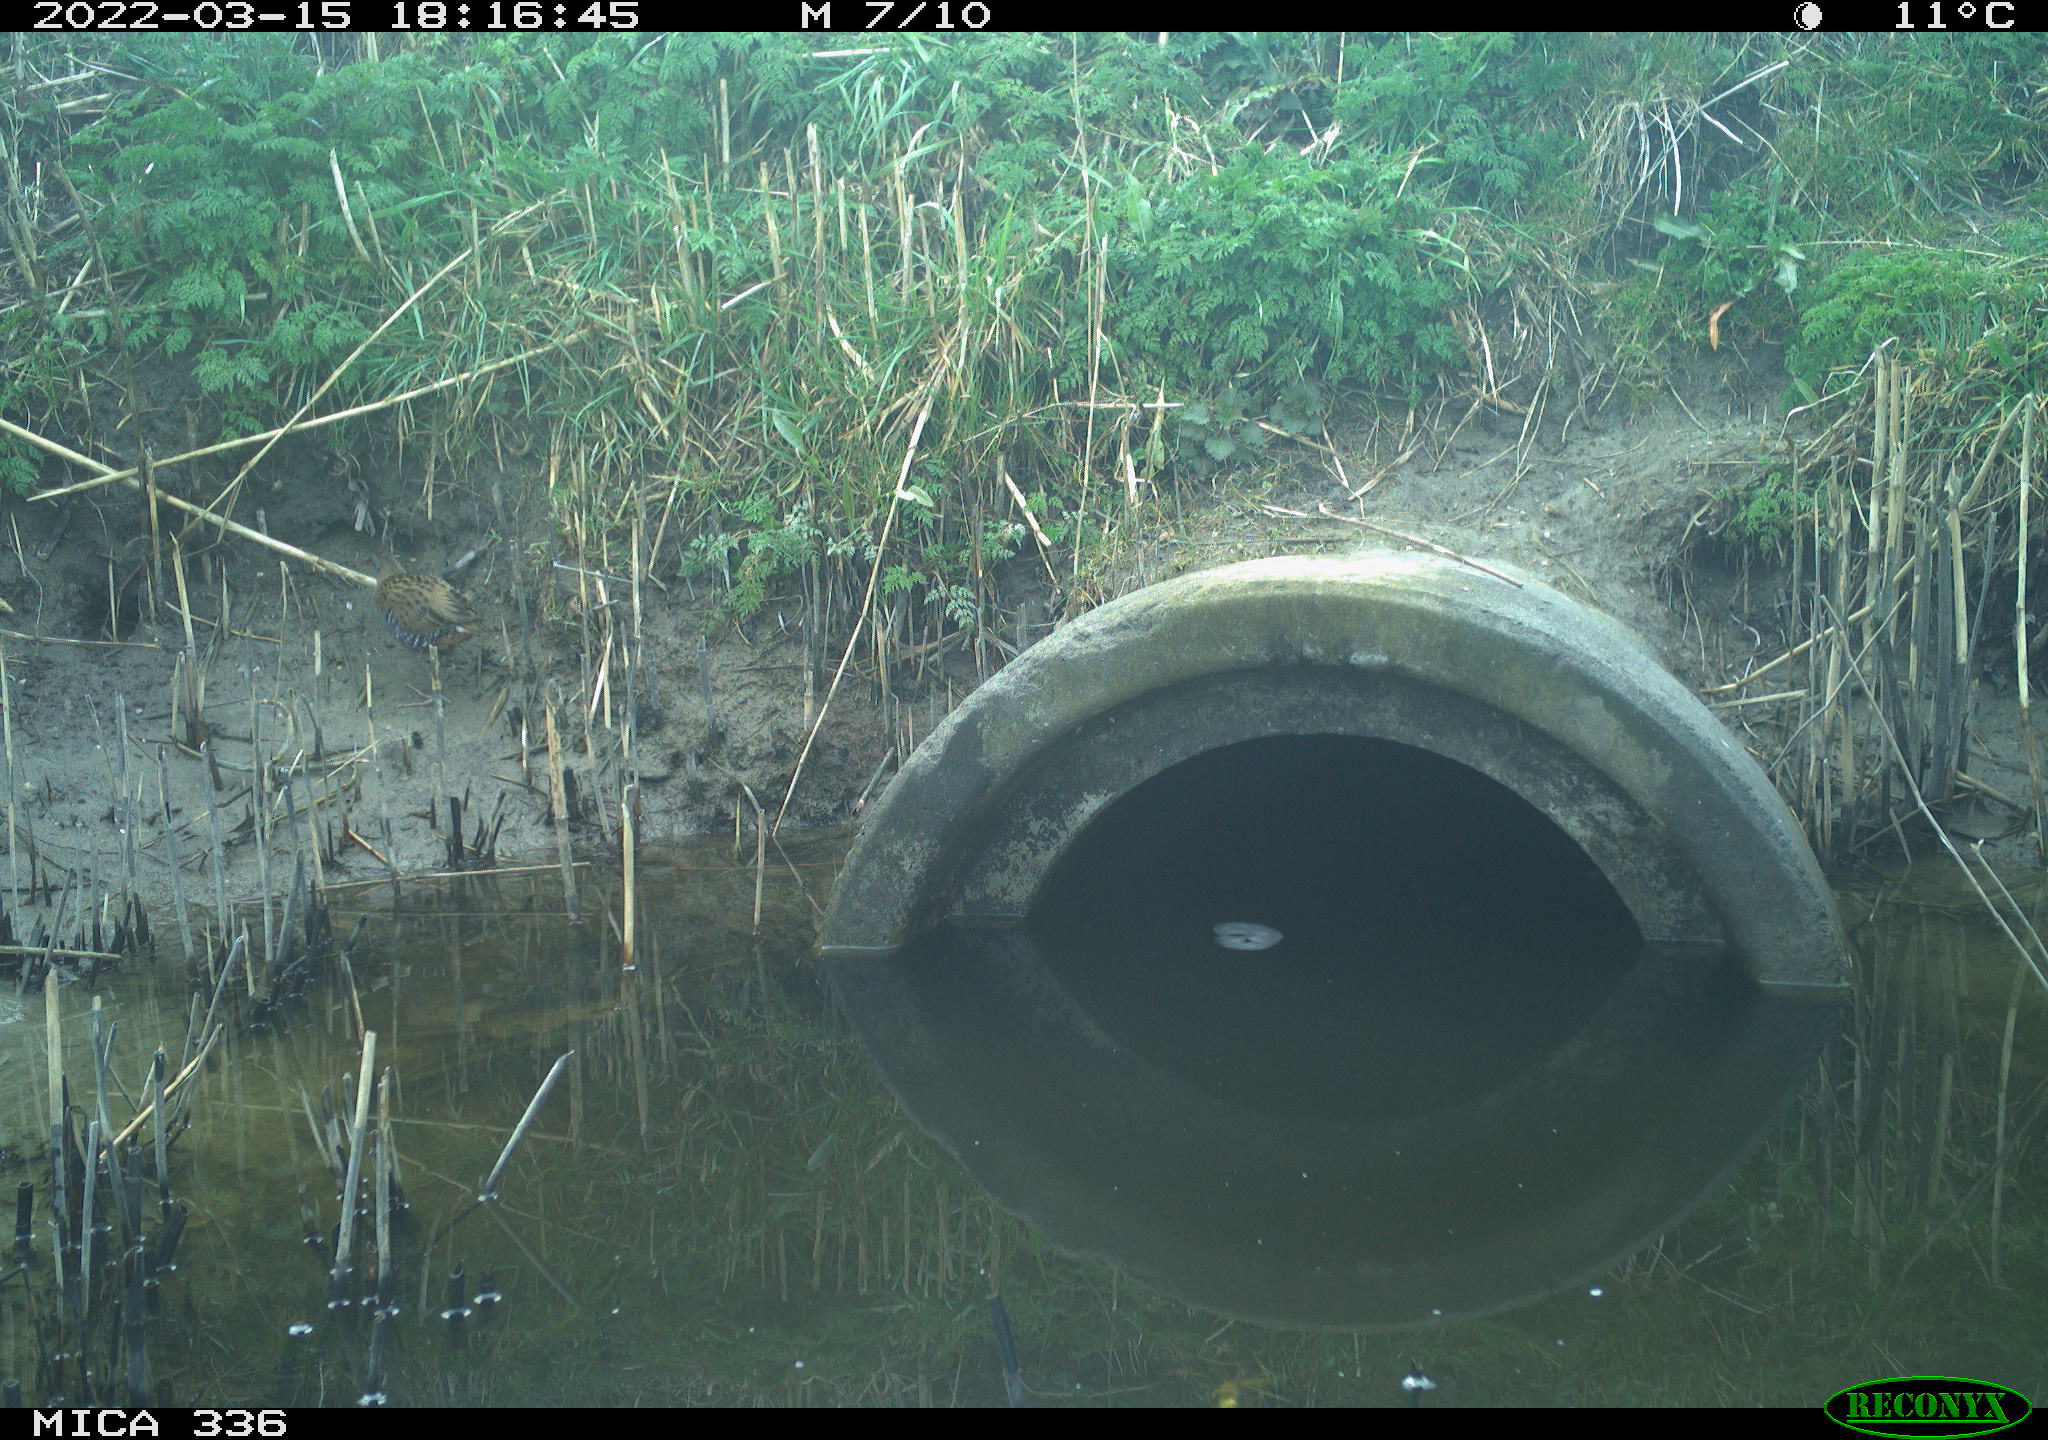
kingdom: Animalia
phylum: Chordata
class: Aves
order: Gruiformes
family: Rallidae
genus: Rallus
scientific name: Rallus aquaticus
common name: Water rail
